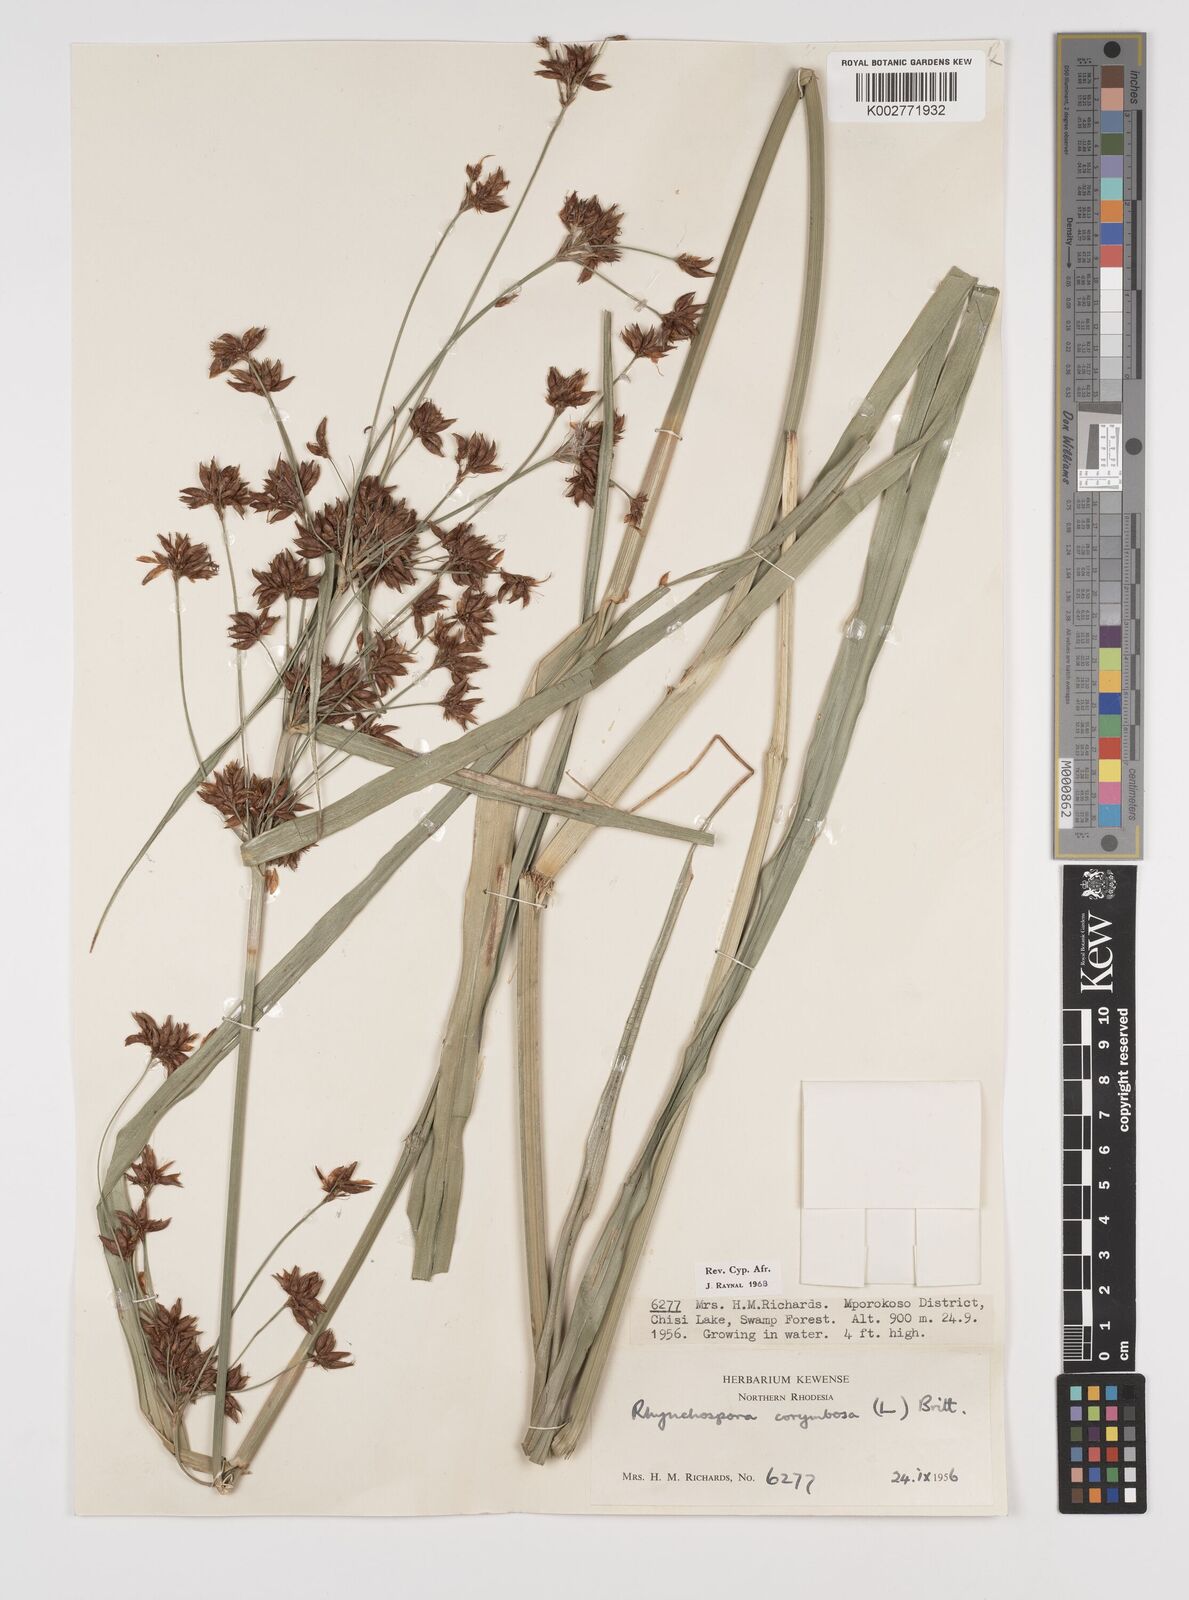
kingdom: Plantae
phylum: Tracheophyta
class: Liliopsida
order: Poales
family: Cyperaceae
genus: Rhynchospora
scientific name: Rhynchospora corymbosa
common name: Golden beak sedge
